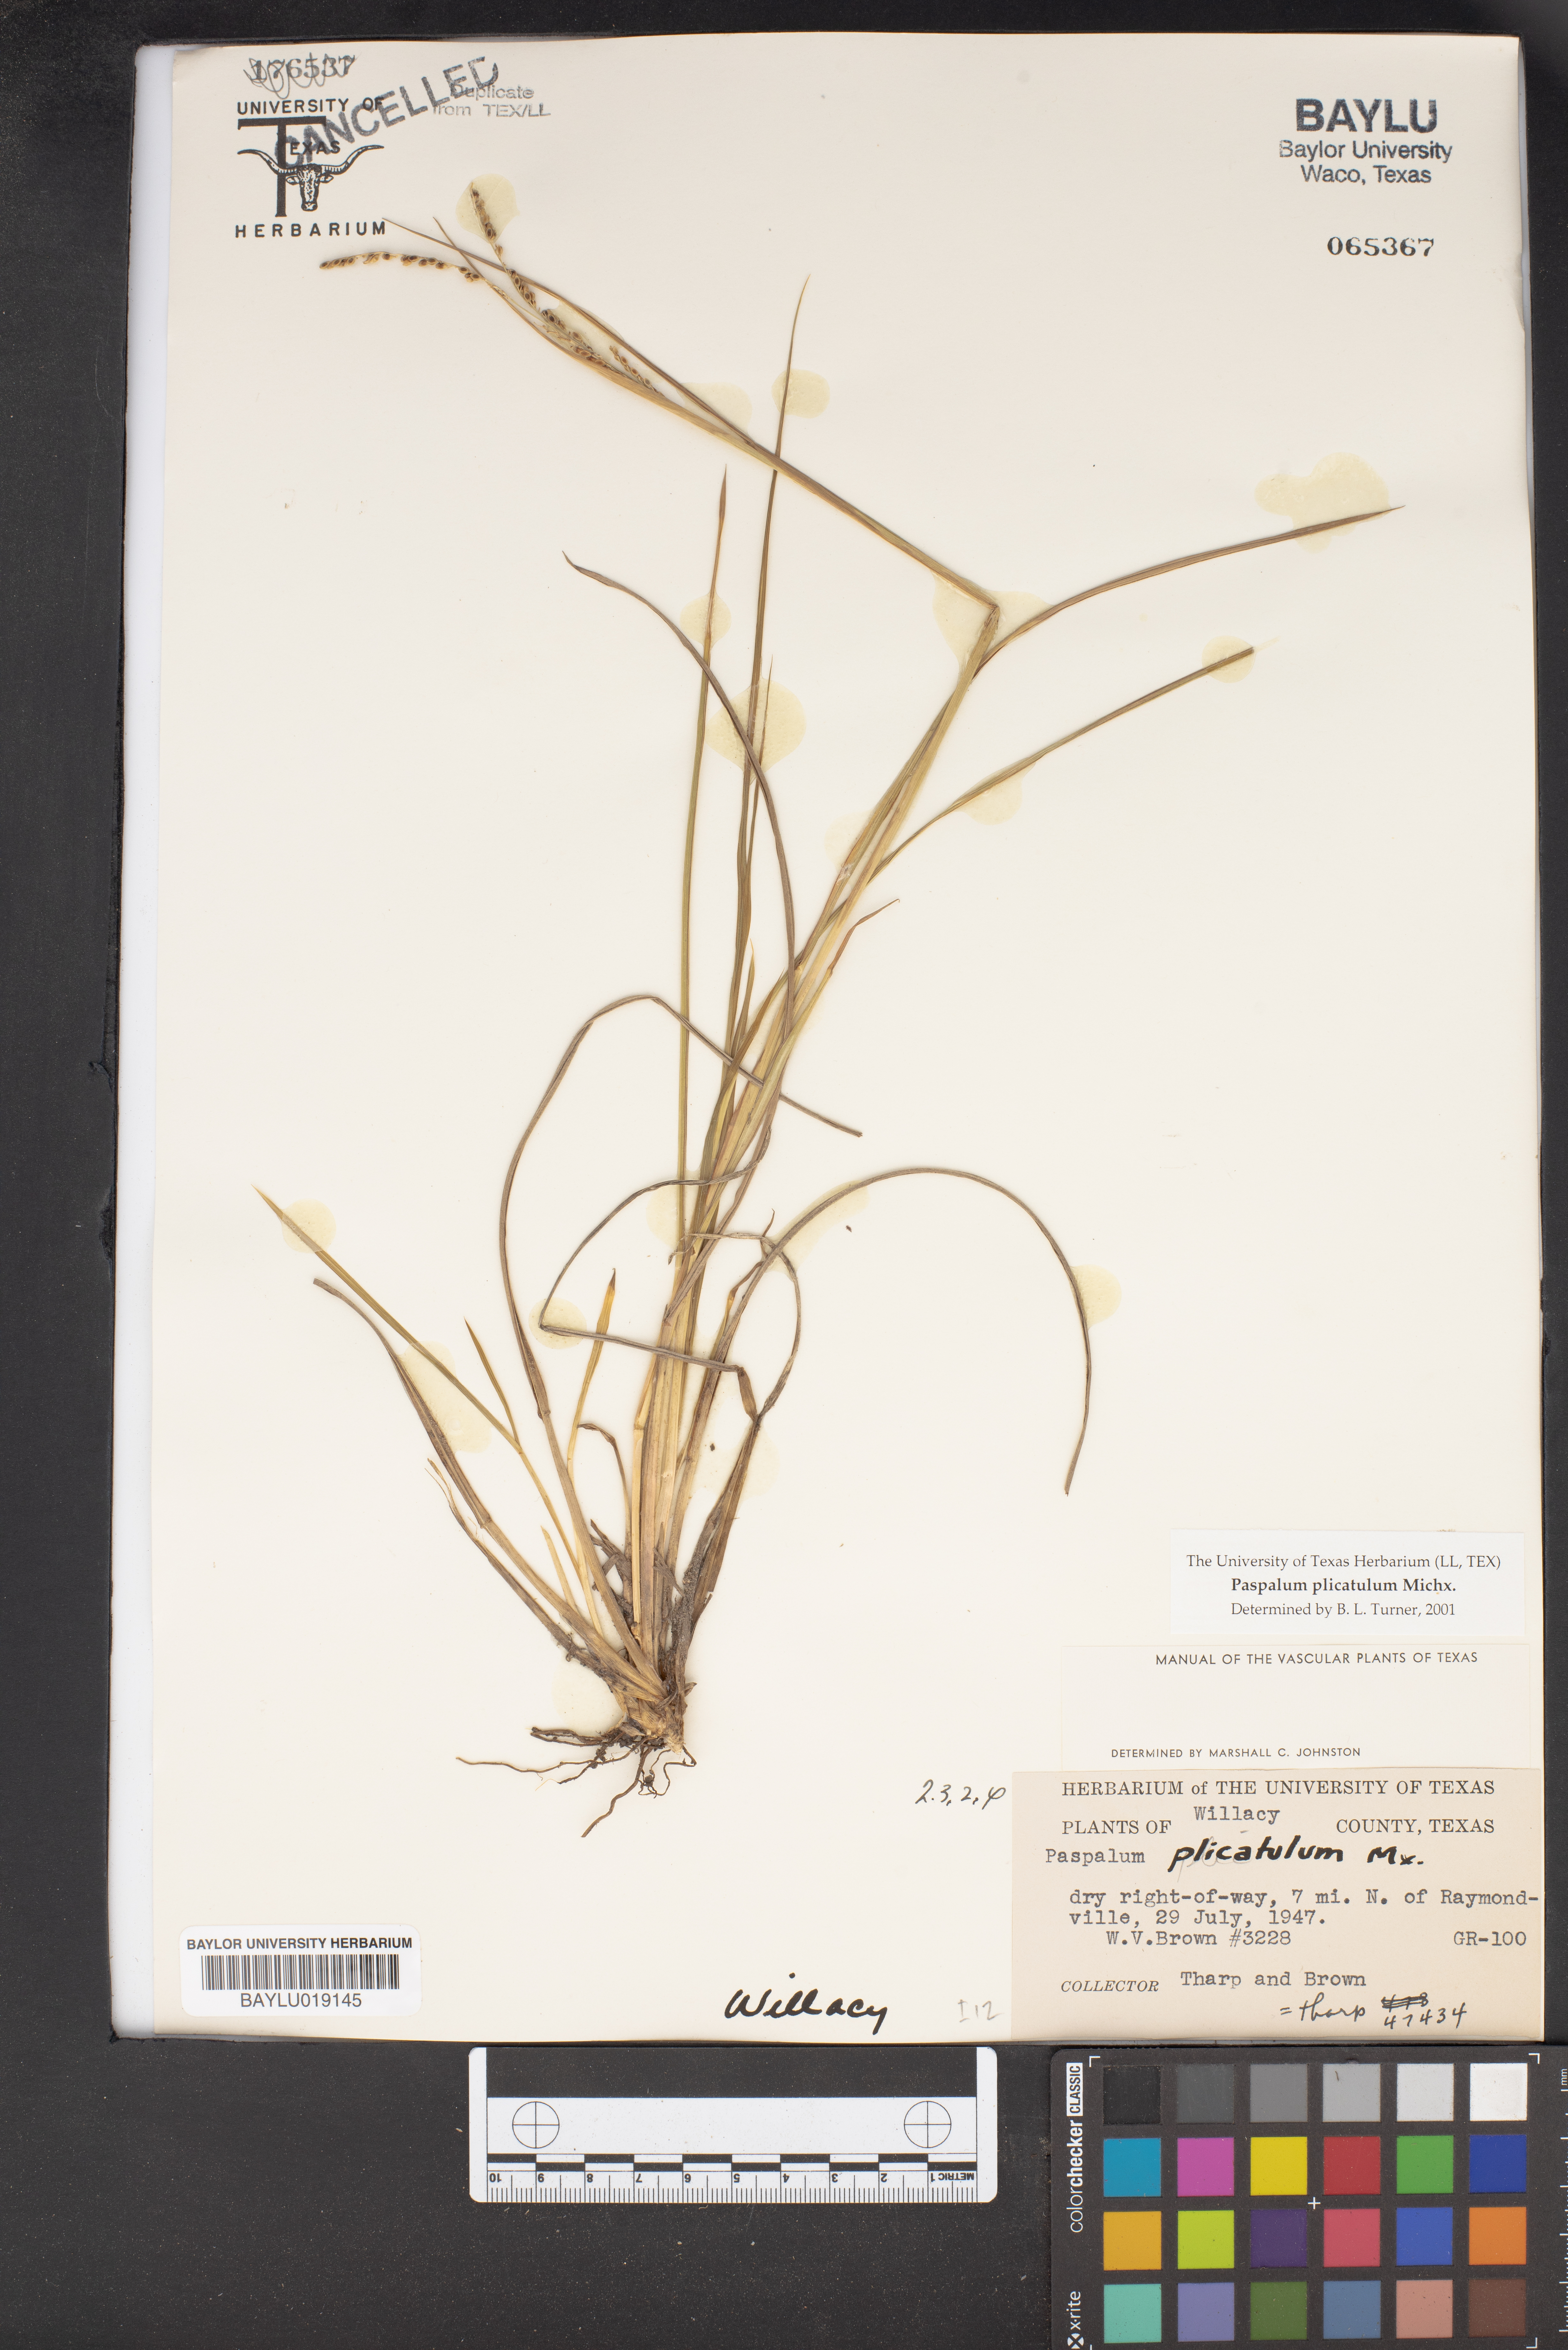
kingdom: Plantae
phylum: Tracheophyta
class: Liliopsida
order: Poales
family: Poaceae
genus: Paspalum
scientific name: Paspalum plicatulum
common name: Top paspalum
